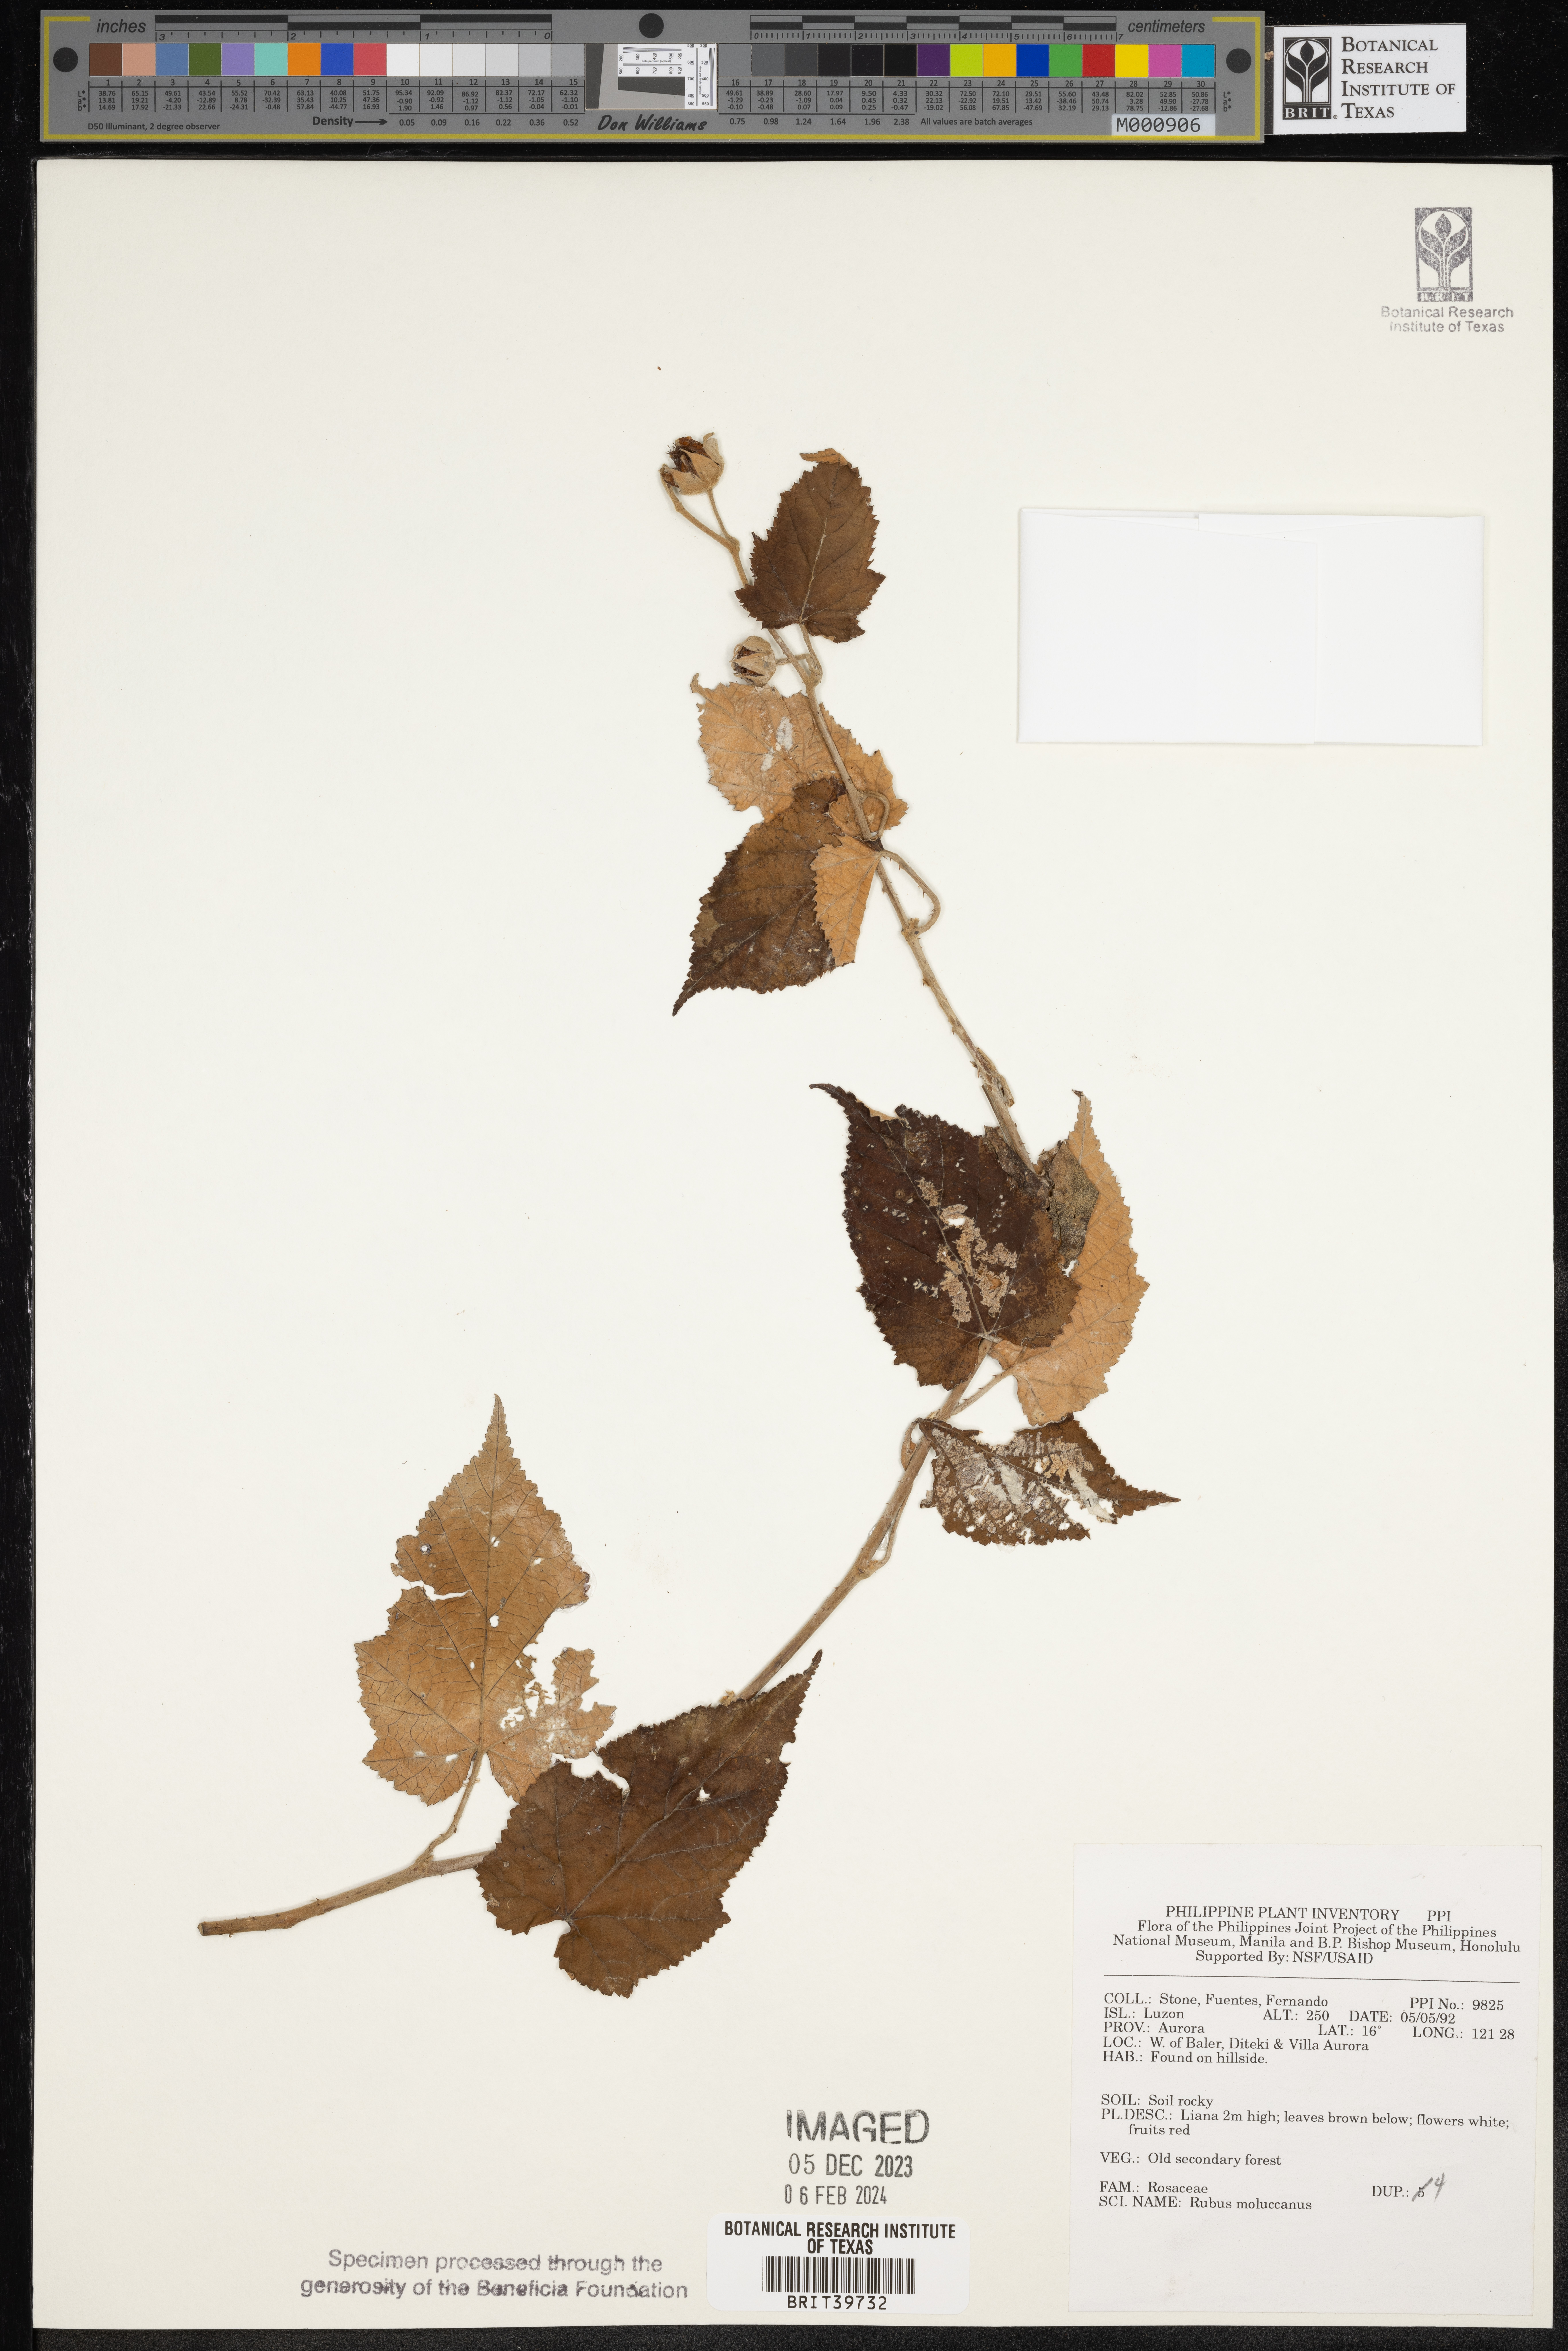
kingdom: Plantae
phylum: Tracheophyta
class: Magnoliopsida
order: Rosales
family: Rosaceae
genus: Rubus
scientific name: Rubus moluccanus
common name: Wild raspberry
